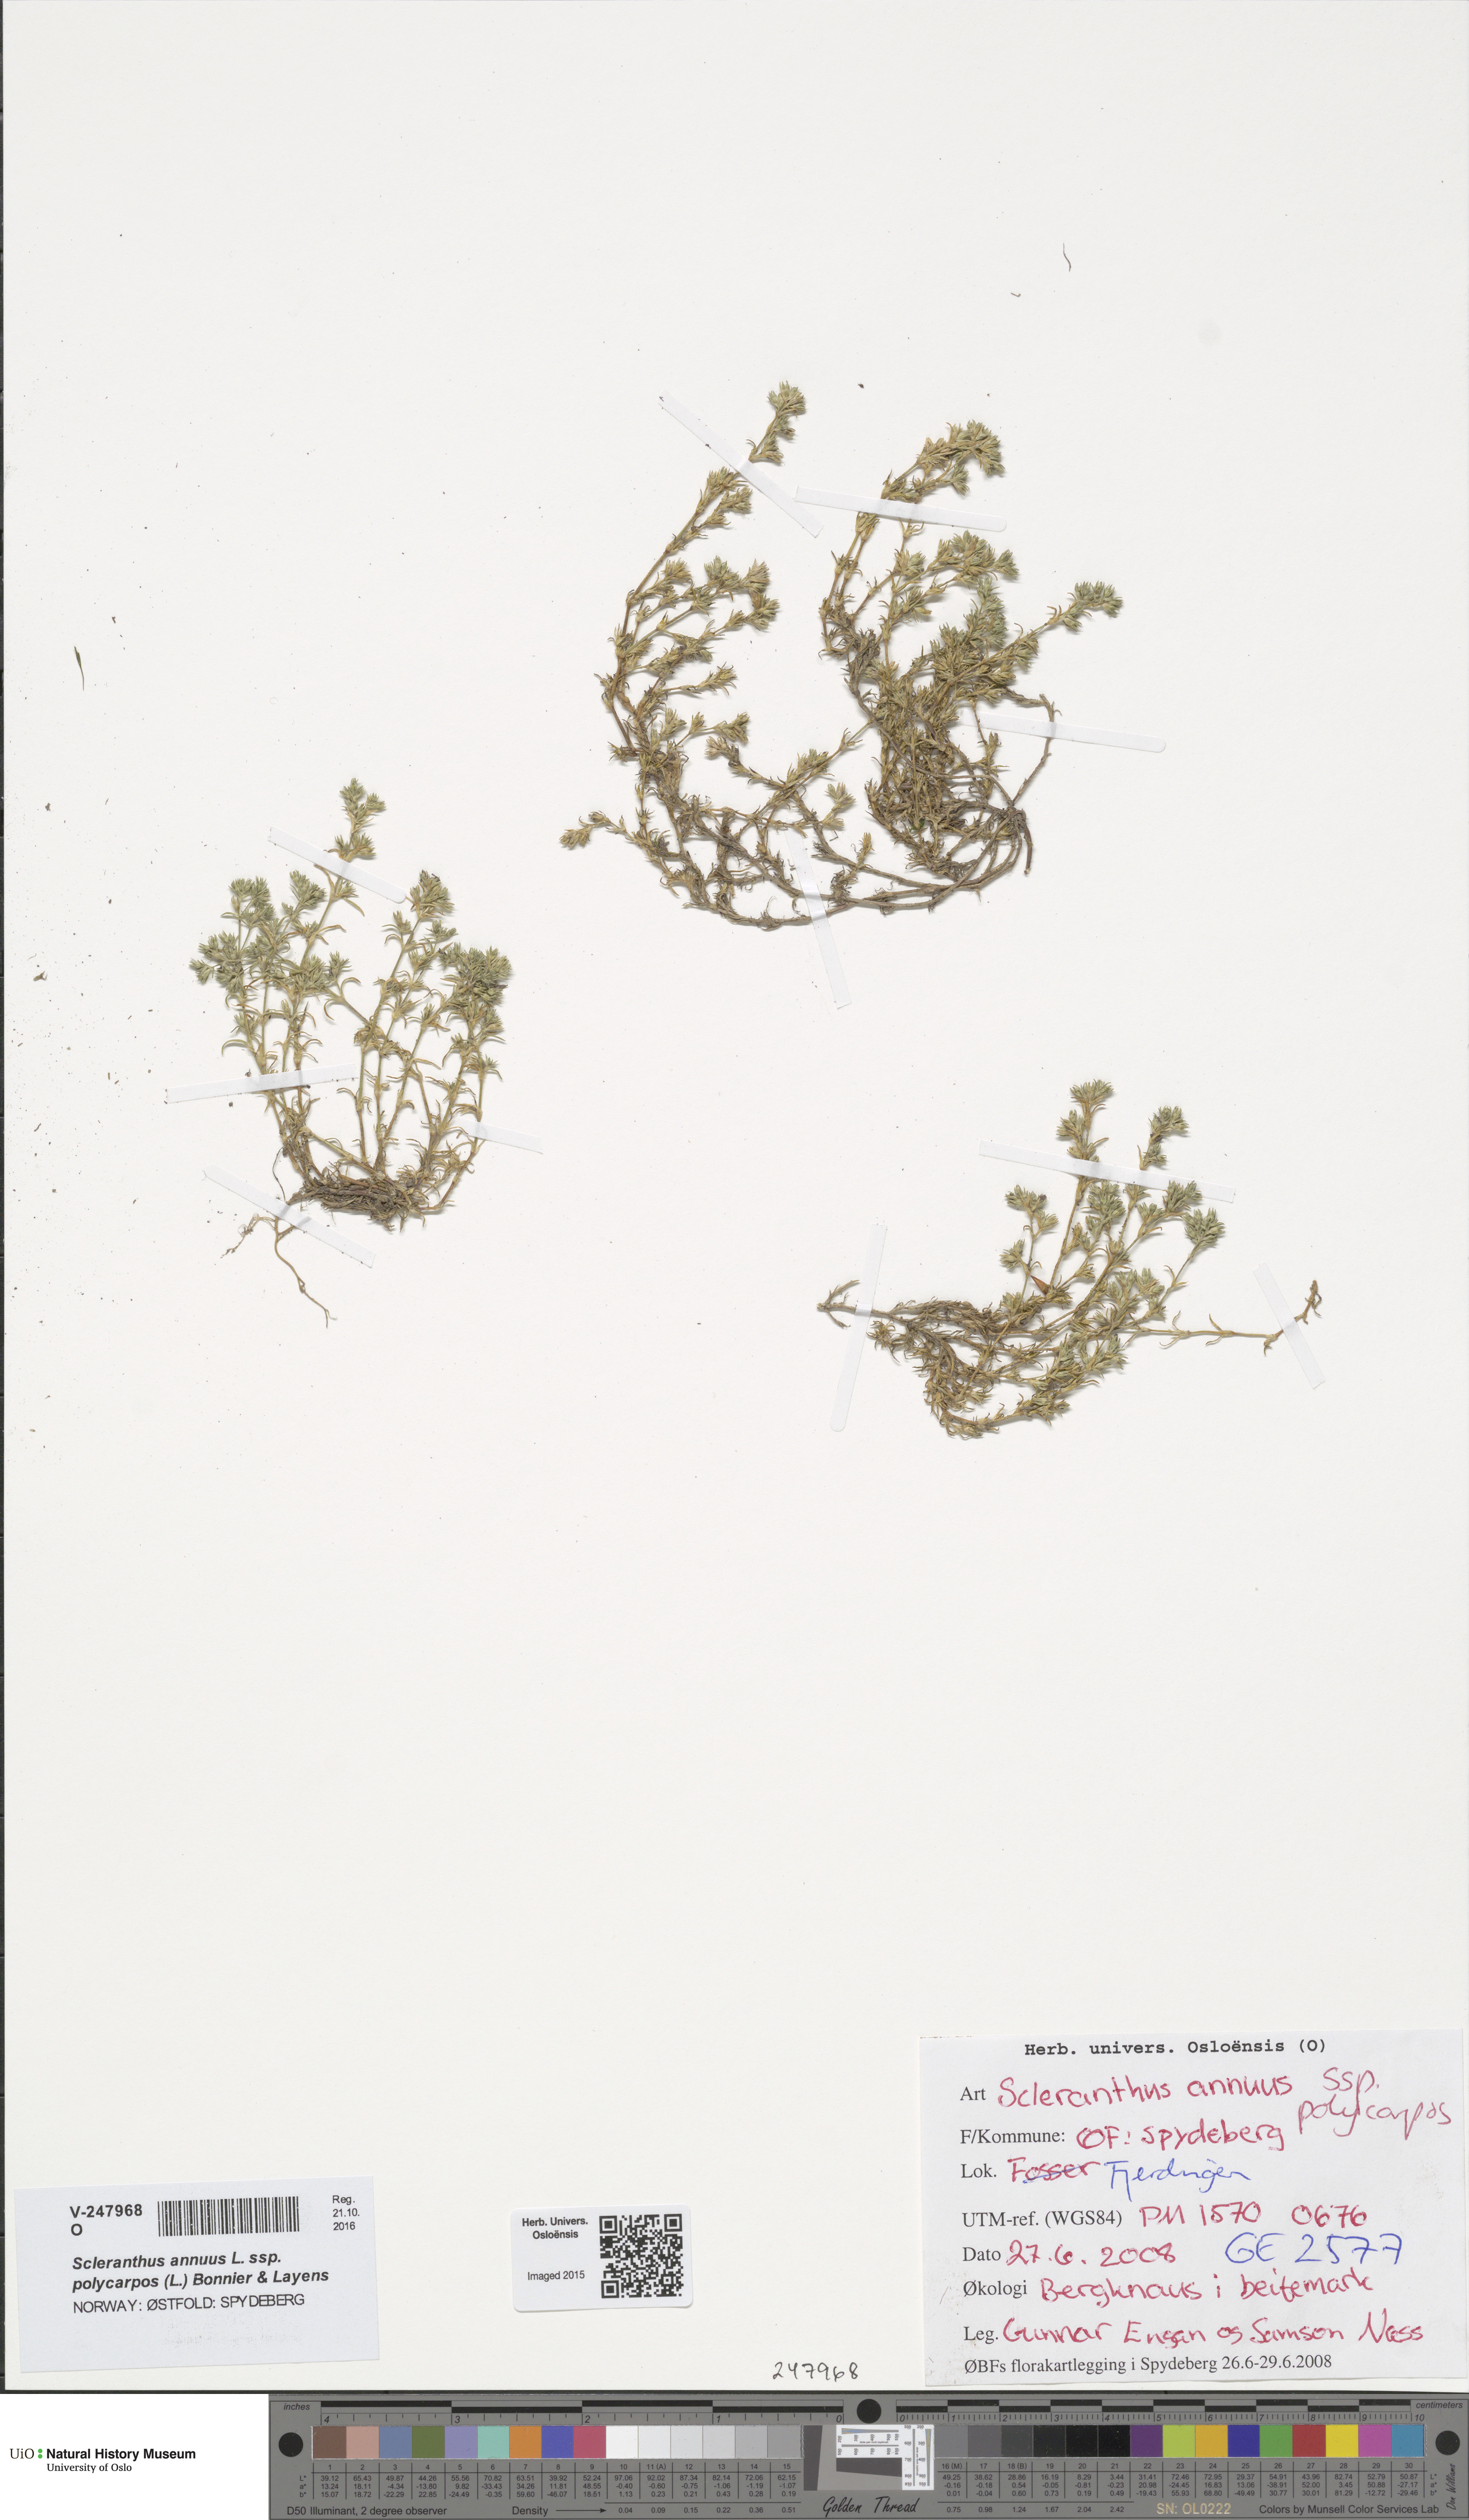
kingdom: Plantae
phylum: Tracheophyta
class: Magnoliopsida
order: Caryophyllales
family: Caryophyllaceae
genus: Scleranthus
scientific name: Scleranthus annuus
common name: Annual knawel
